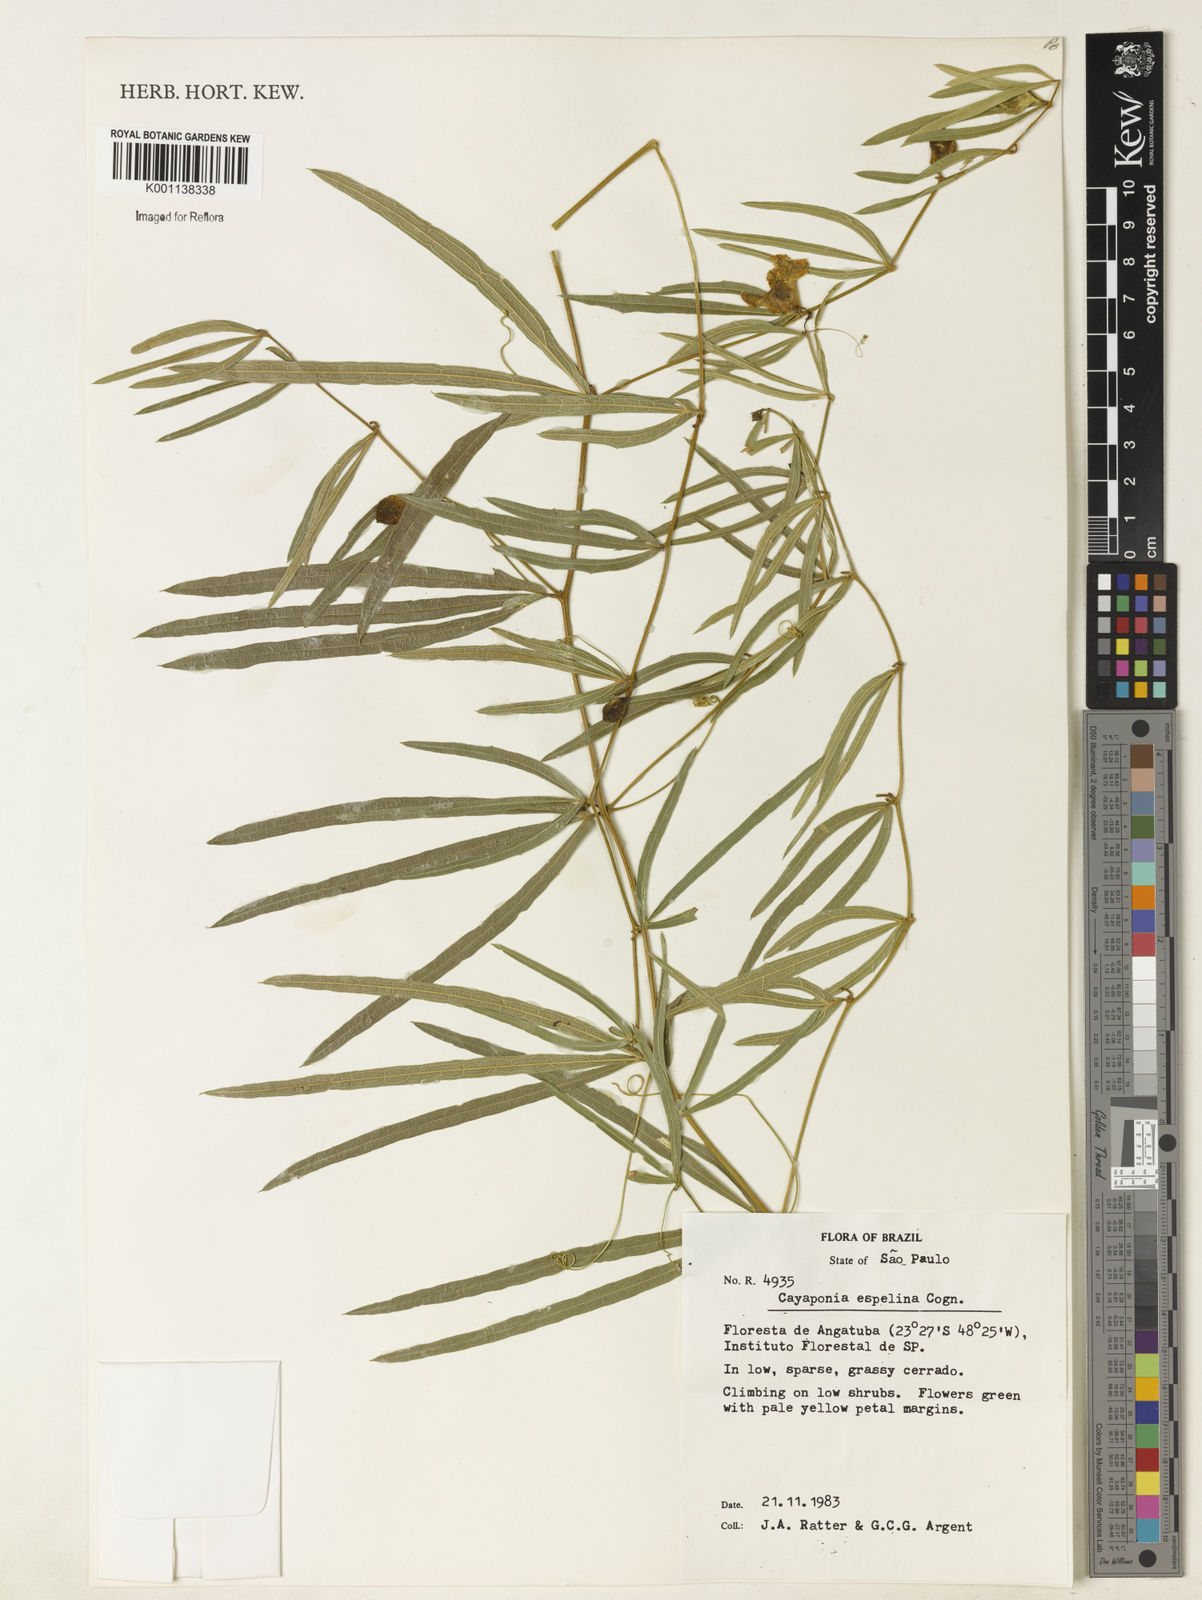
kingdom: Plantae
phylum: Tracheophyta
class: Magnoliopsida
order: Cucurbitales
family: Cucurbitaceae
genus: Cayaponia
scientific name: Cayaponia espelina
